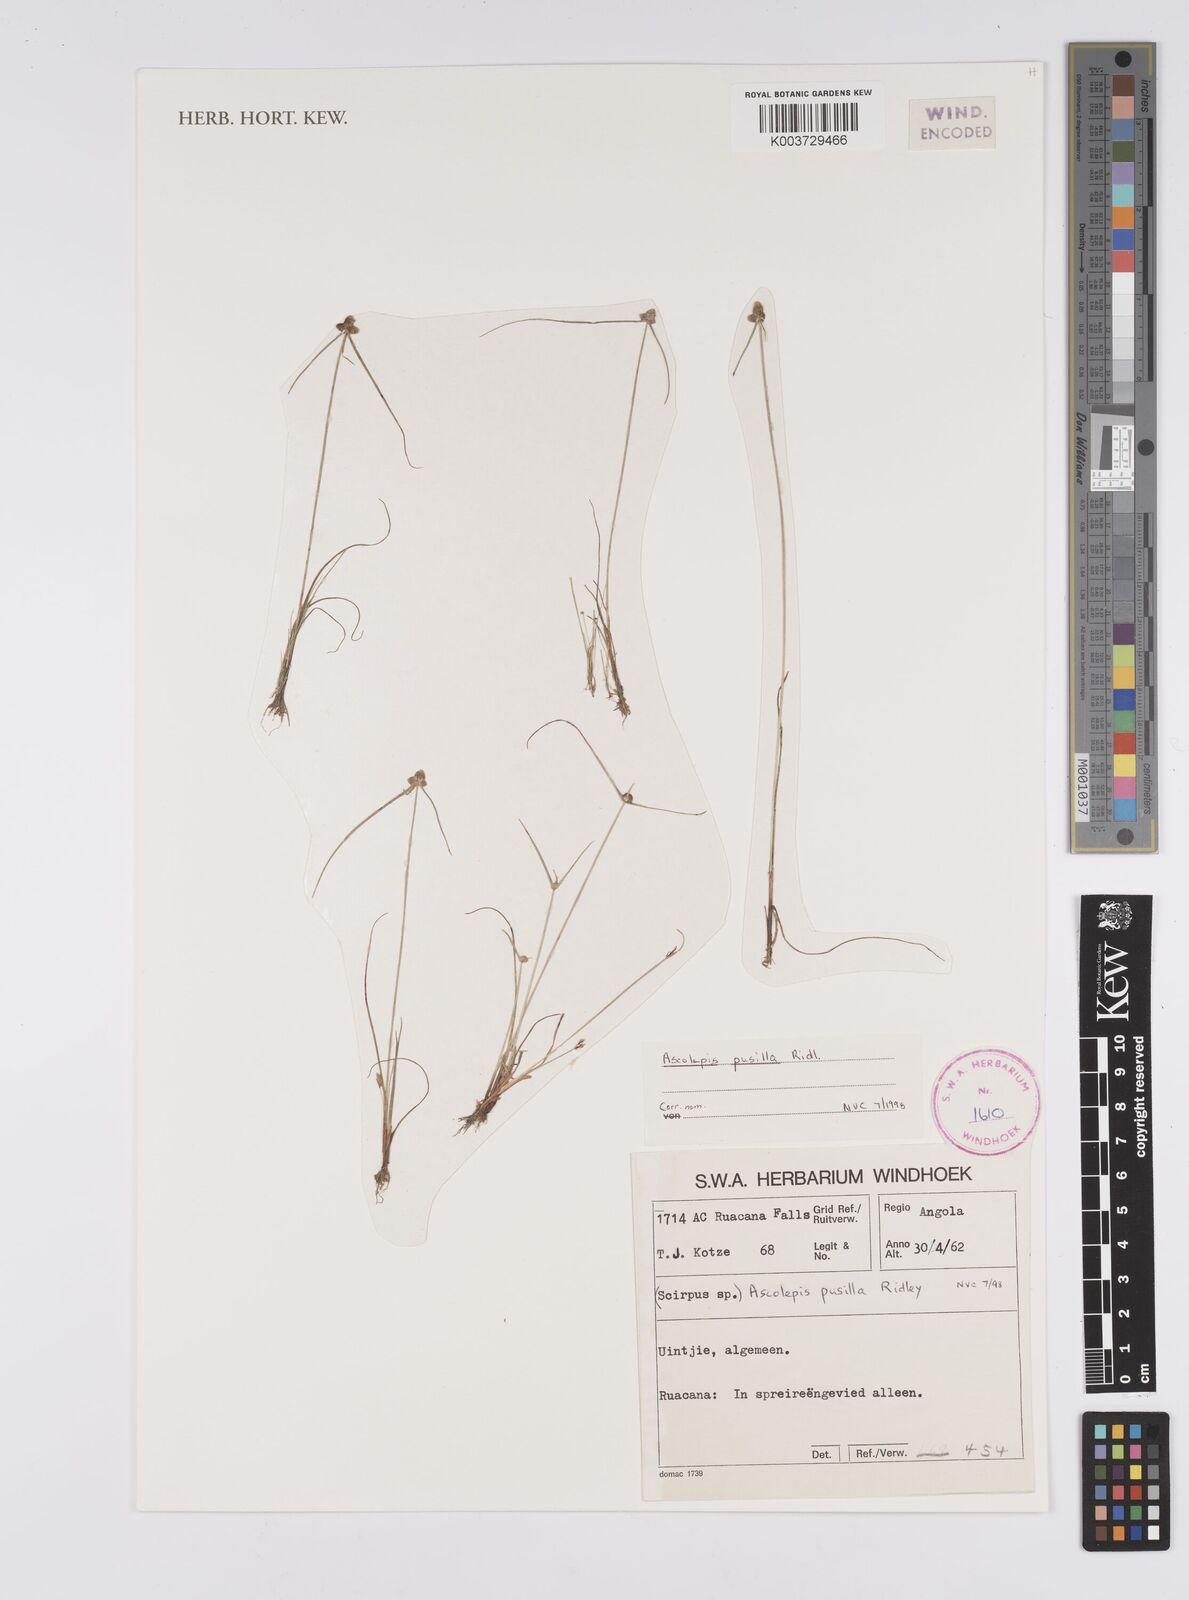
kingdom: Plantae
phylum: Tracheophyta
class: Liliopsida
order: Poales
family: Cyperaceae
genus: Cyperus
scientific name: Cyperus
